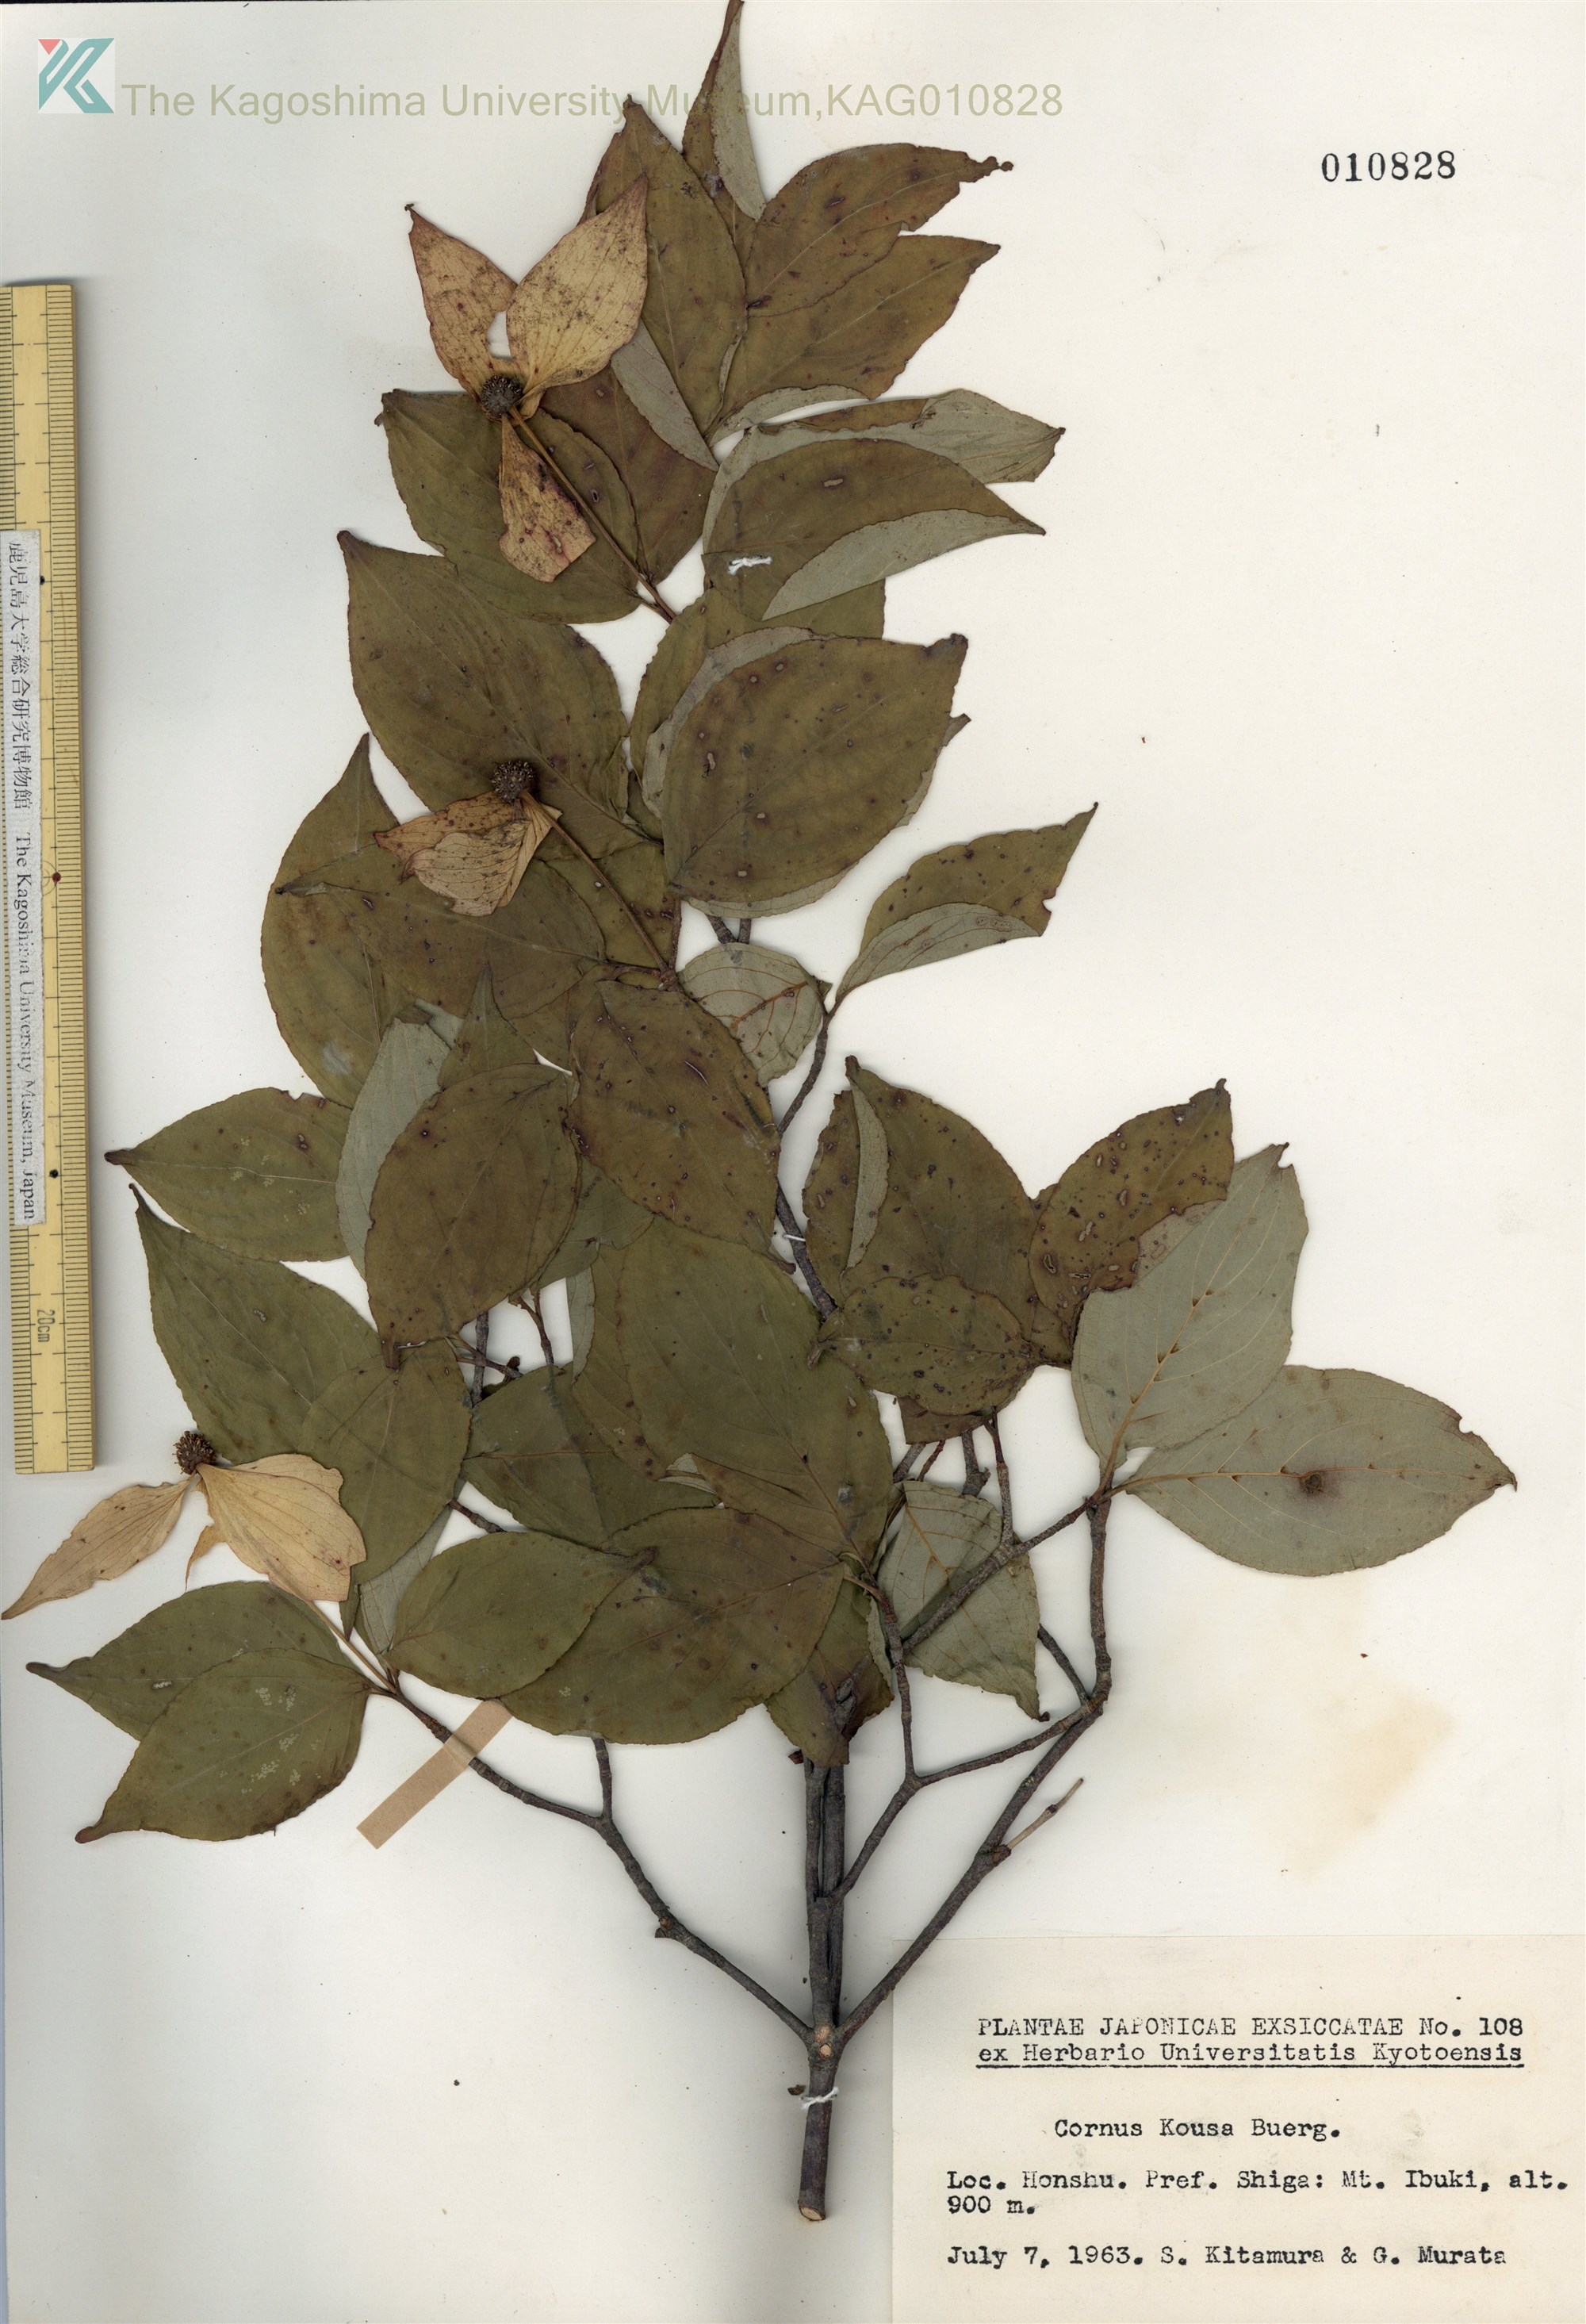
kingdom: Plantae
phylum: Tracheophyta
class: Magnoliopsida
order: Cornales
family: Cornaceae
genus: Cornus
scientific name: Cornus kousa
